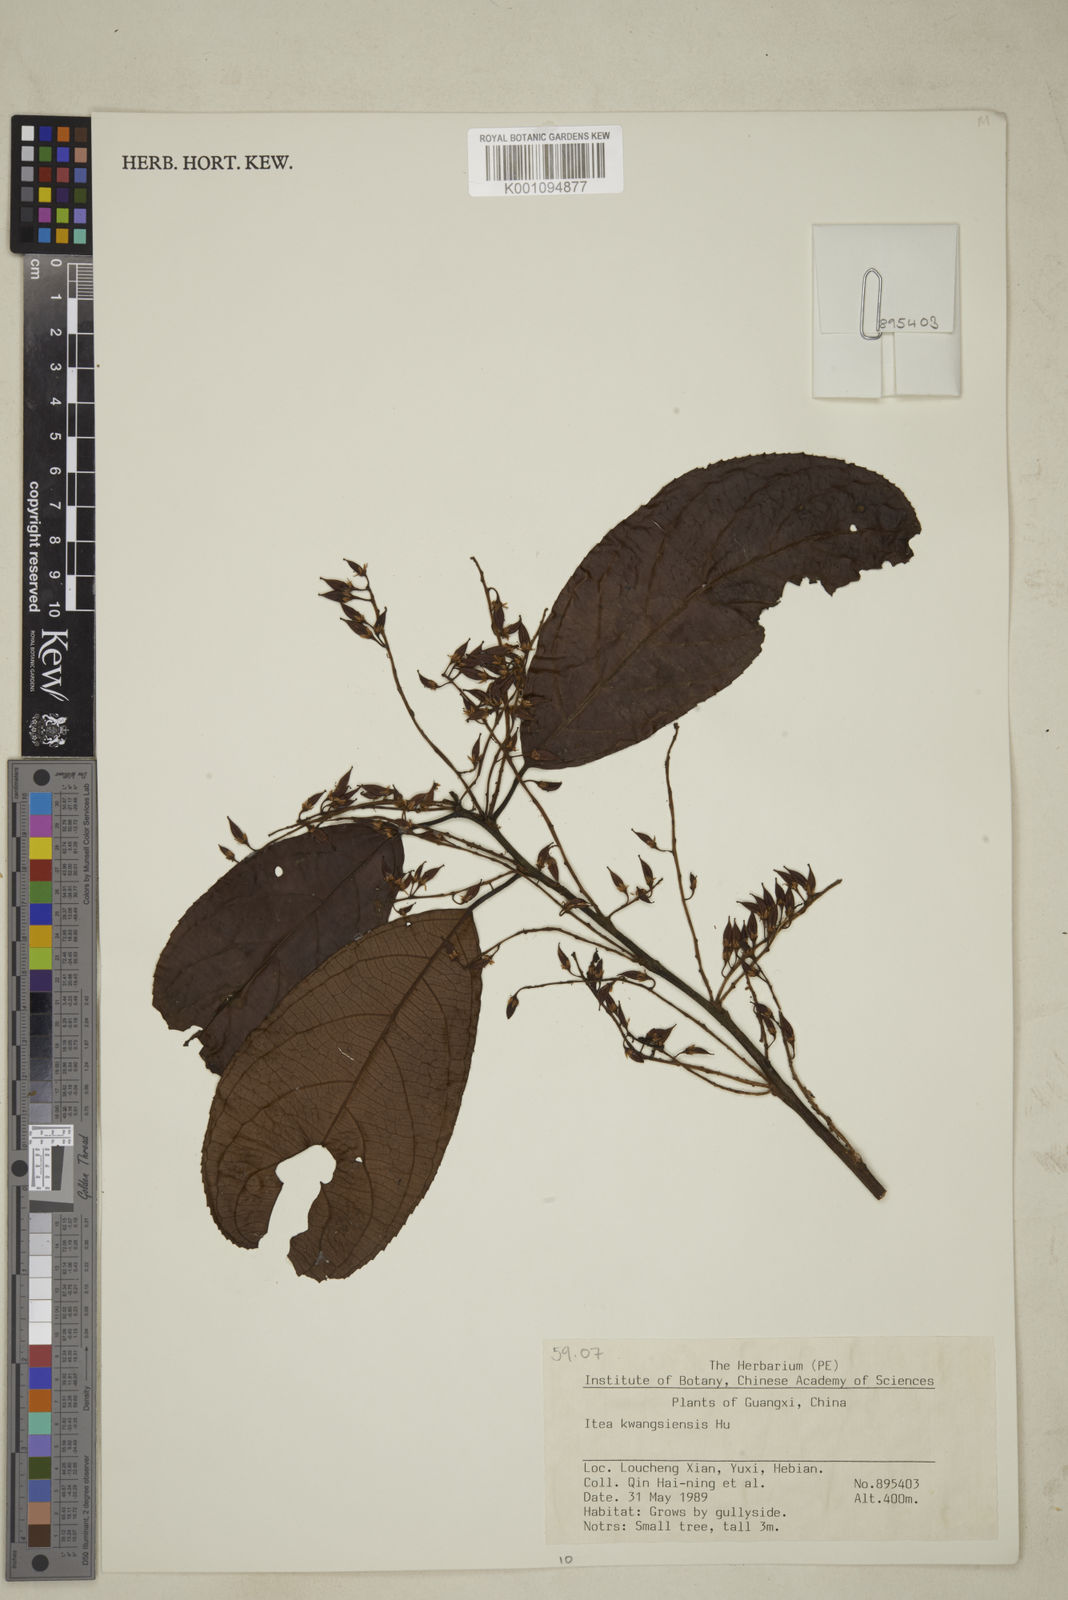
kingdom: Plantae
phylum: Tracheophyta
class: Magnoliopsida
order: Saxifragales
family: Iteaceae
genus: Itea
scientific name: Itea kwangsiensis
